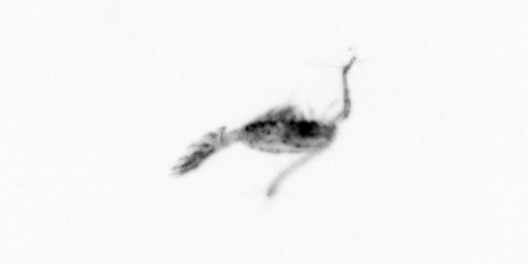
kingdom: Animalia
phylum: Arthropoda
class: Copepoda
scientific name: Copepoda
